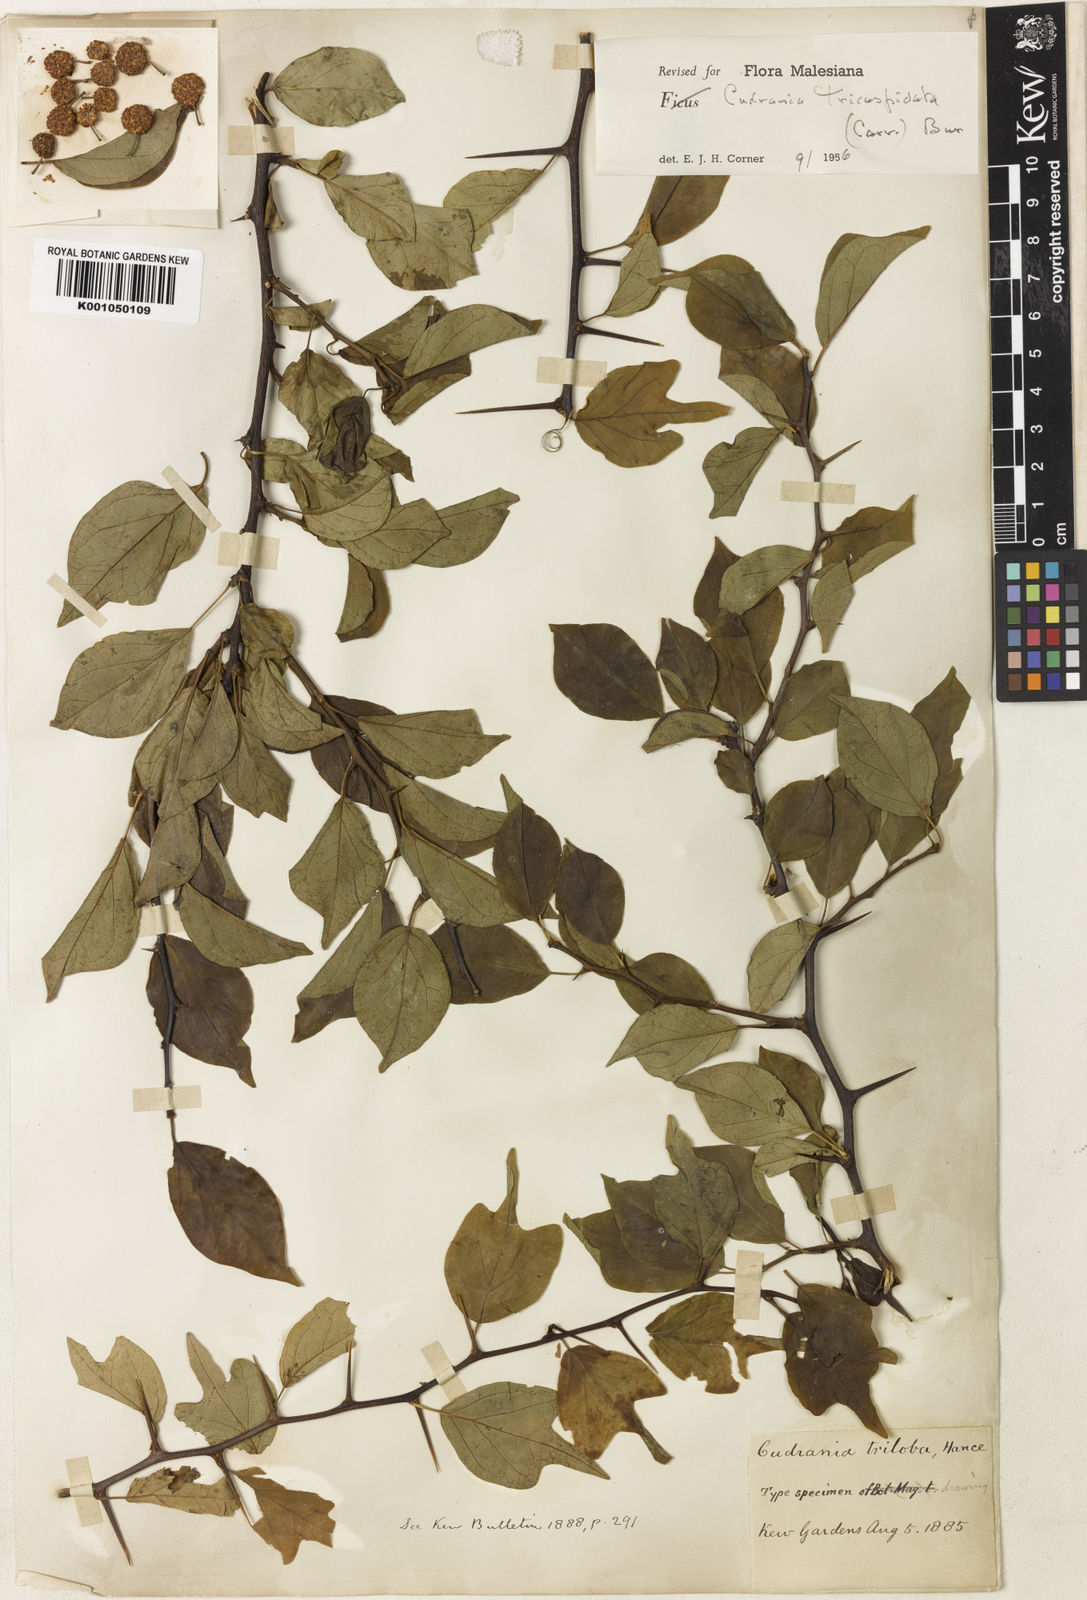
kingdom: Plantae
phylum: Tracheophyta
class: Magnoliopsida
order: Rosales
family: Moraceae
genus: Maclura
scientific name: Maclura
